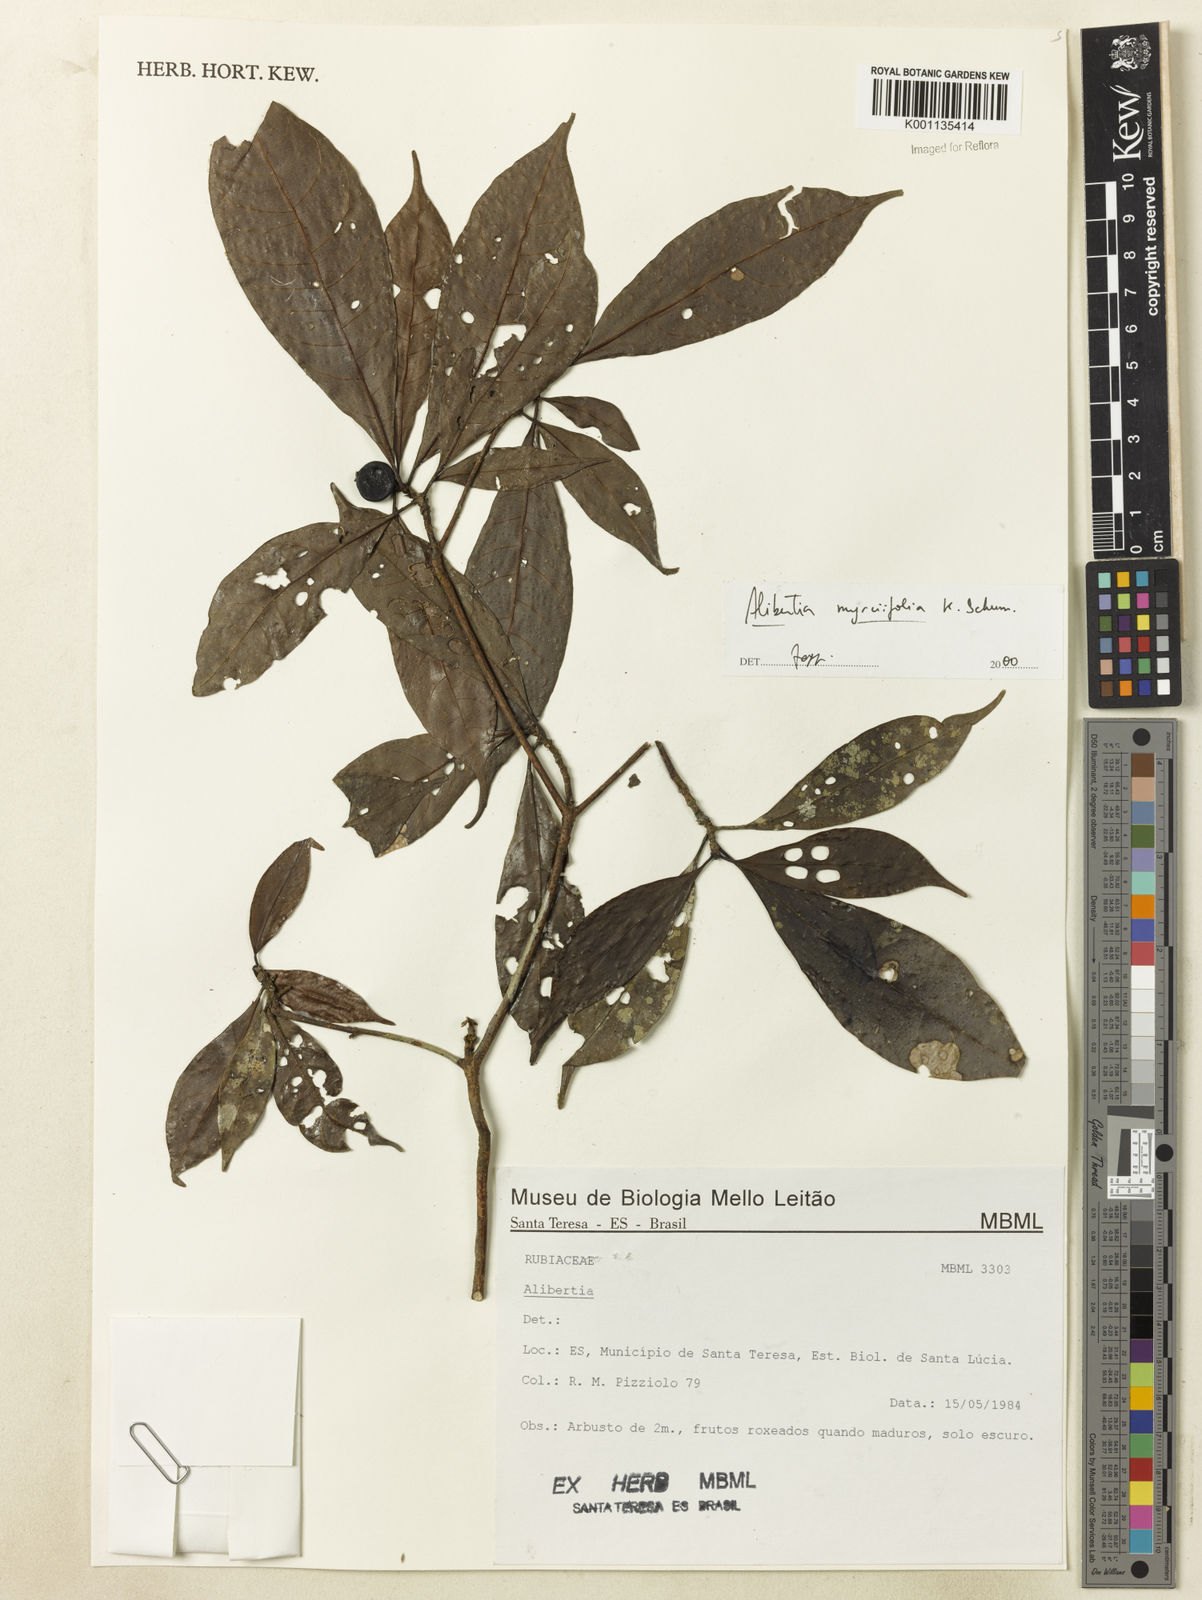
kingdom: Plantae
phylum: Tracheophyta
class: Magnoliopsida
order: Gentianales
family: Rubiaceae
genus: Cordiera
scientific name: Cordiera myrciifolia
